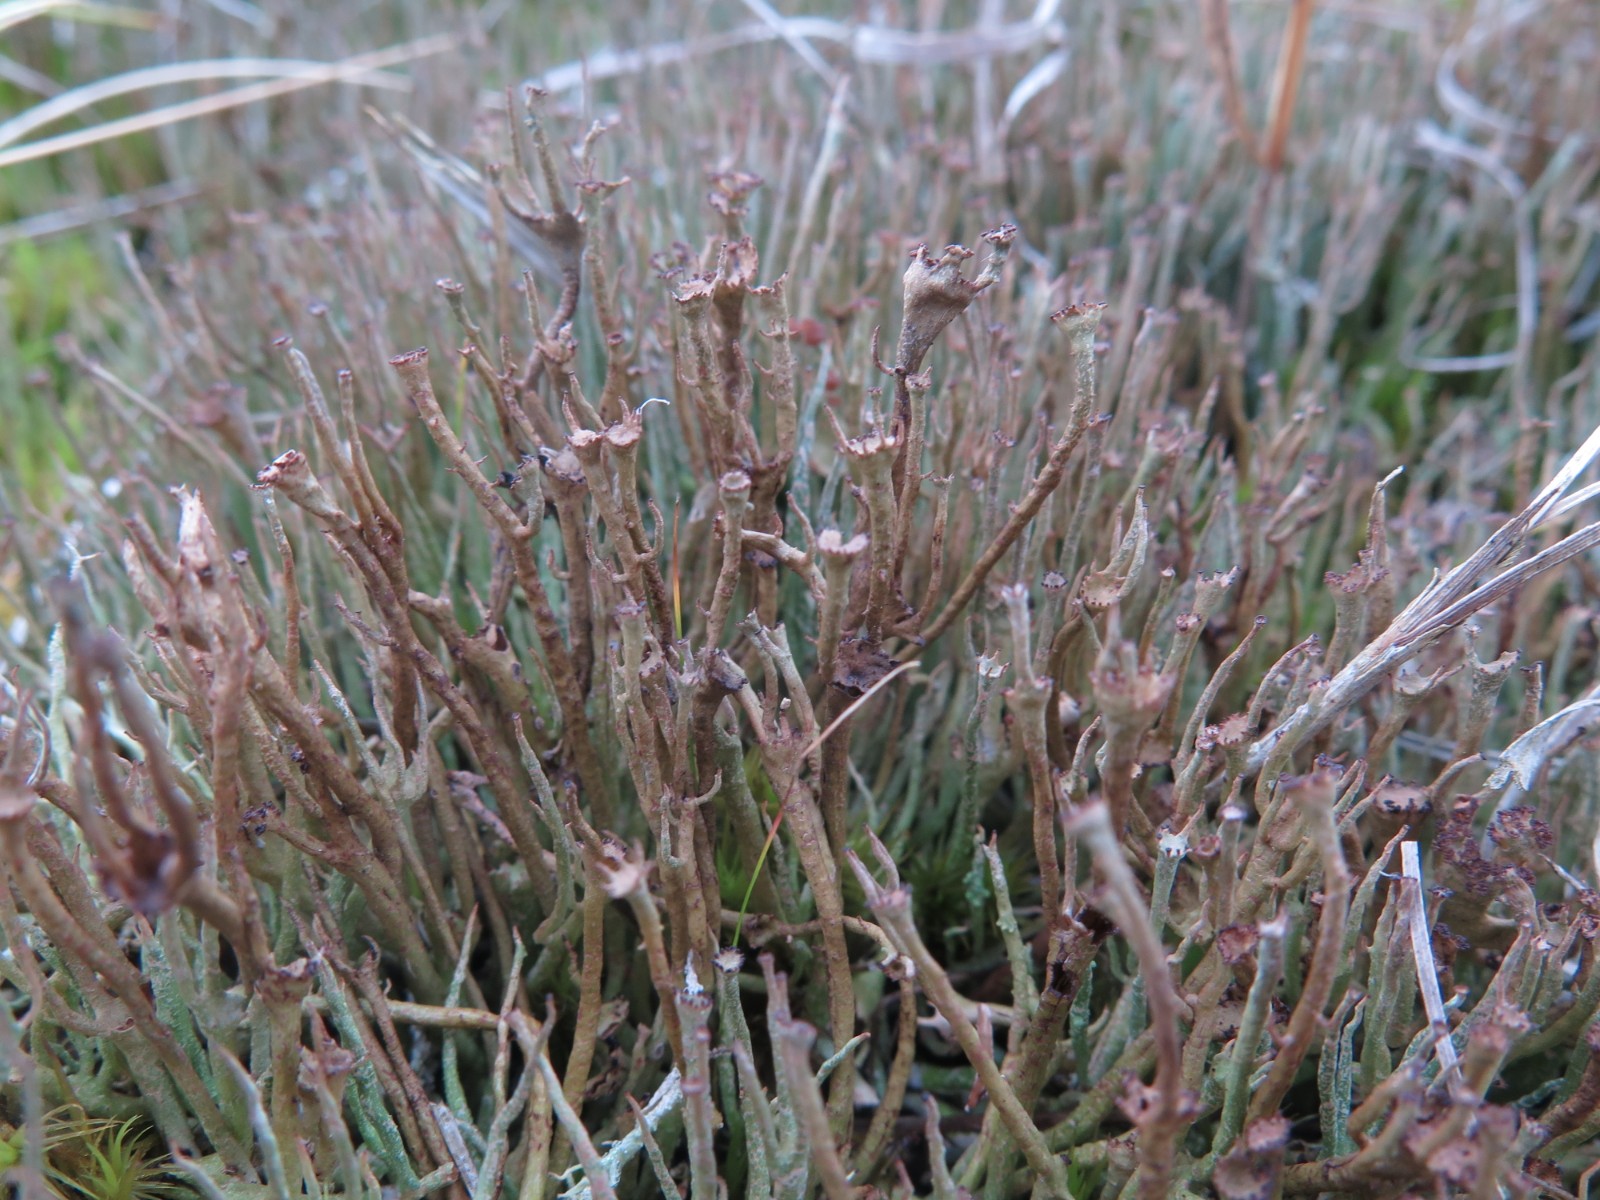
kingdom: Fungi
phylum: Ascomycota
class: Lecanoromycetes
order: Lecanorales
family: Cladoniaceae
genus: Cladonia
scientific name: Cladonia gracilis
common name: slank bægerlav
